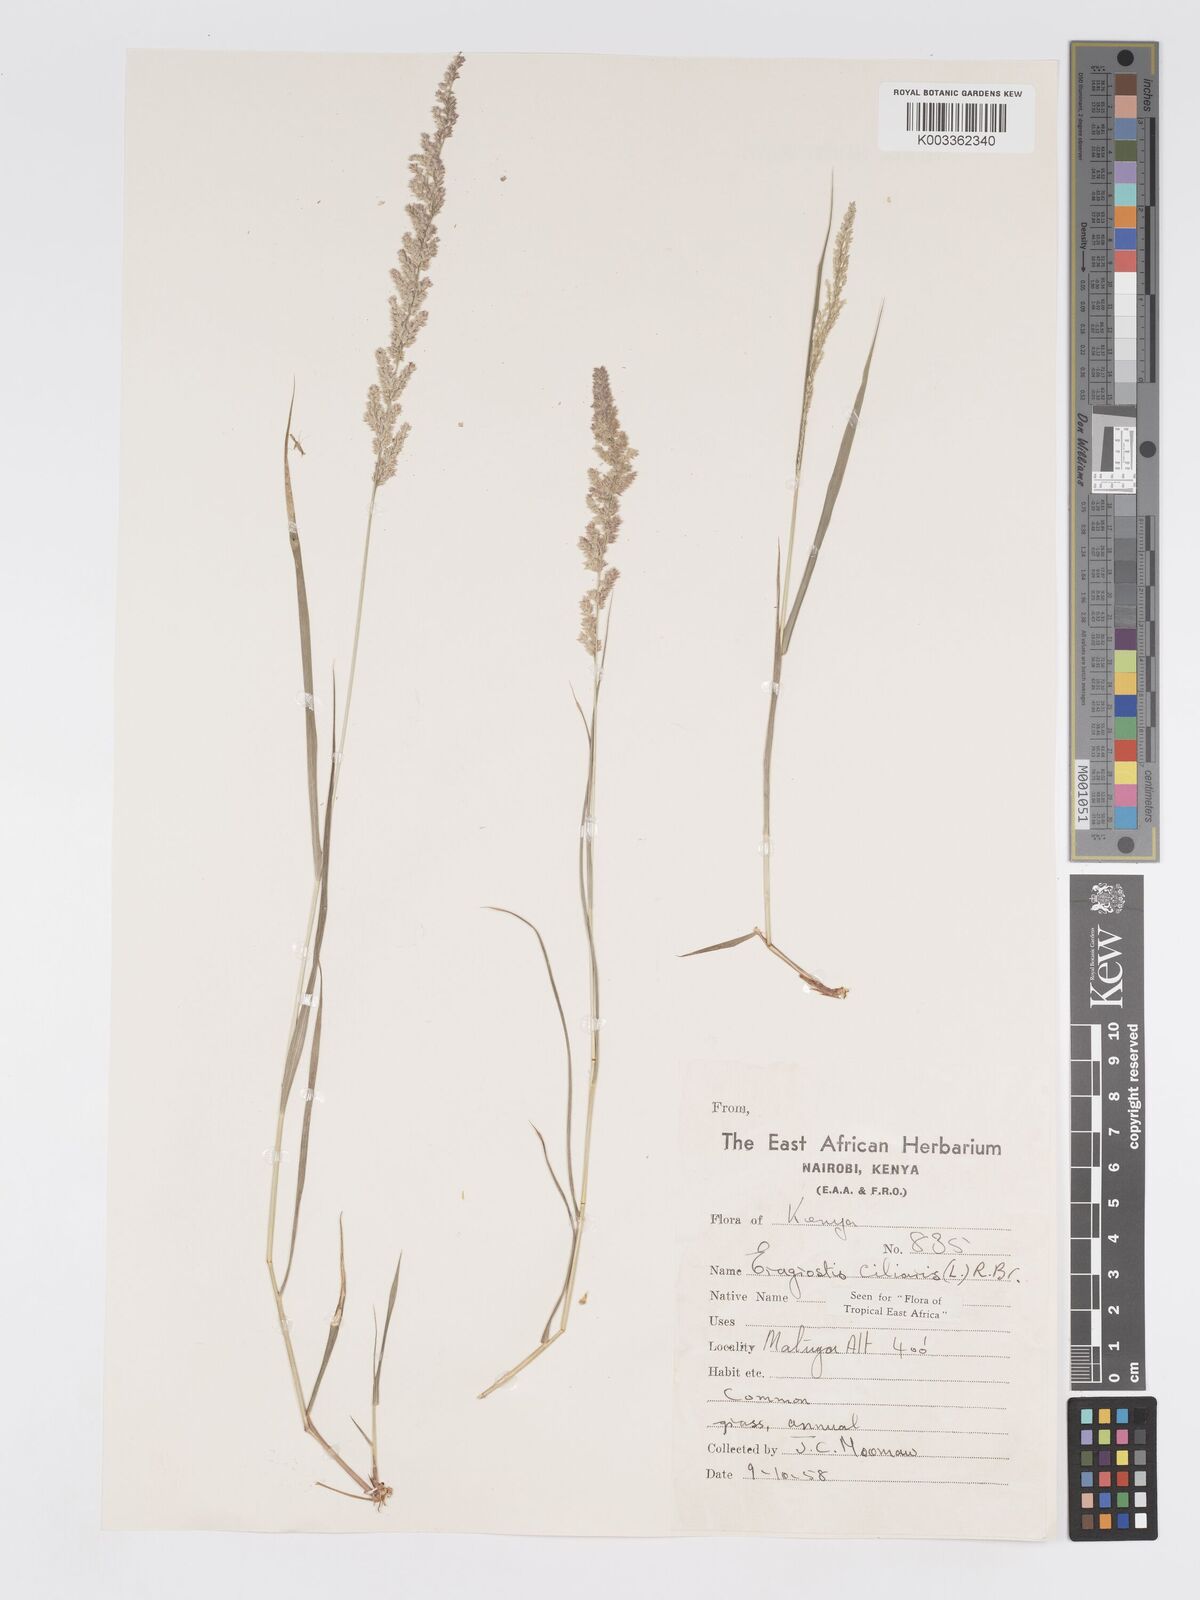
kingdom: Plantae
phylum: Tracheophyta
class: Liliopsida
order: Poales
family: Poaceae
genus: Eragrostis
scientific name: Eragrostis ciliaris
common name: Gophertail lovegrass
